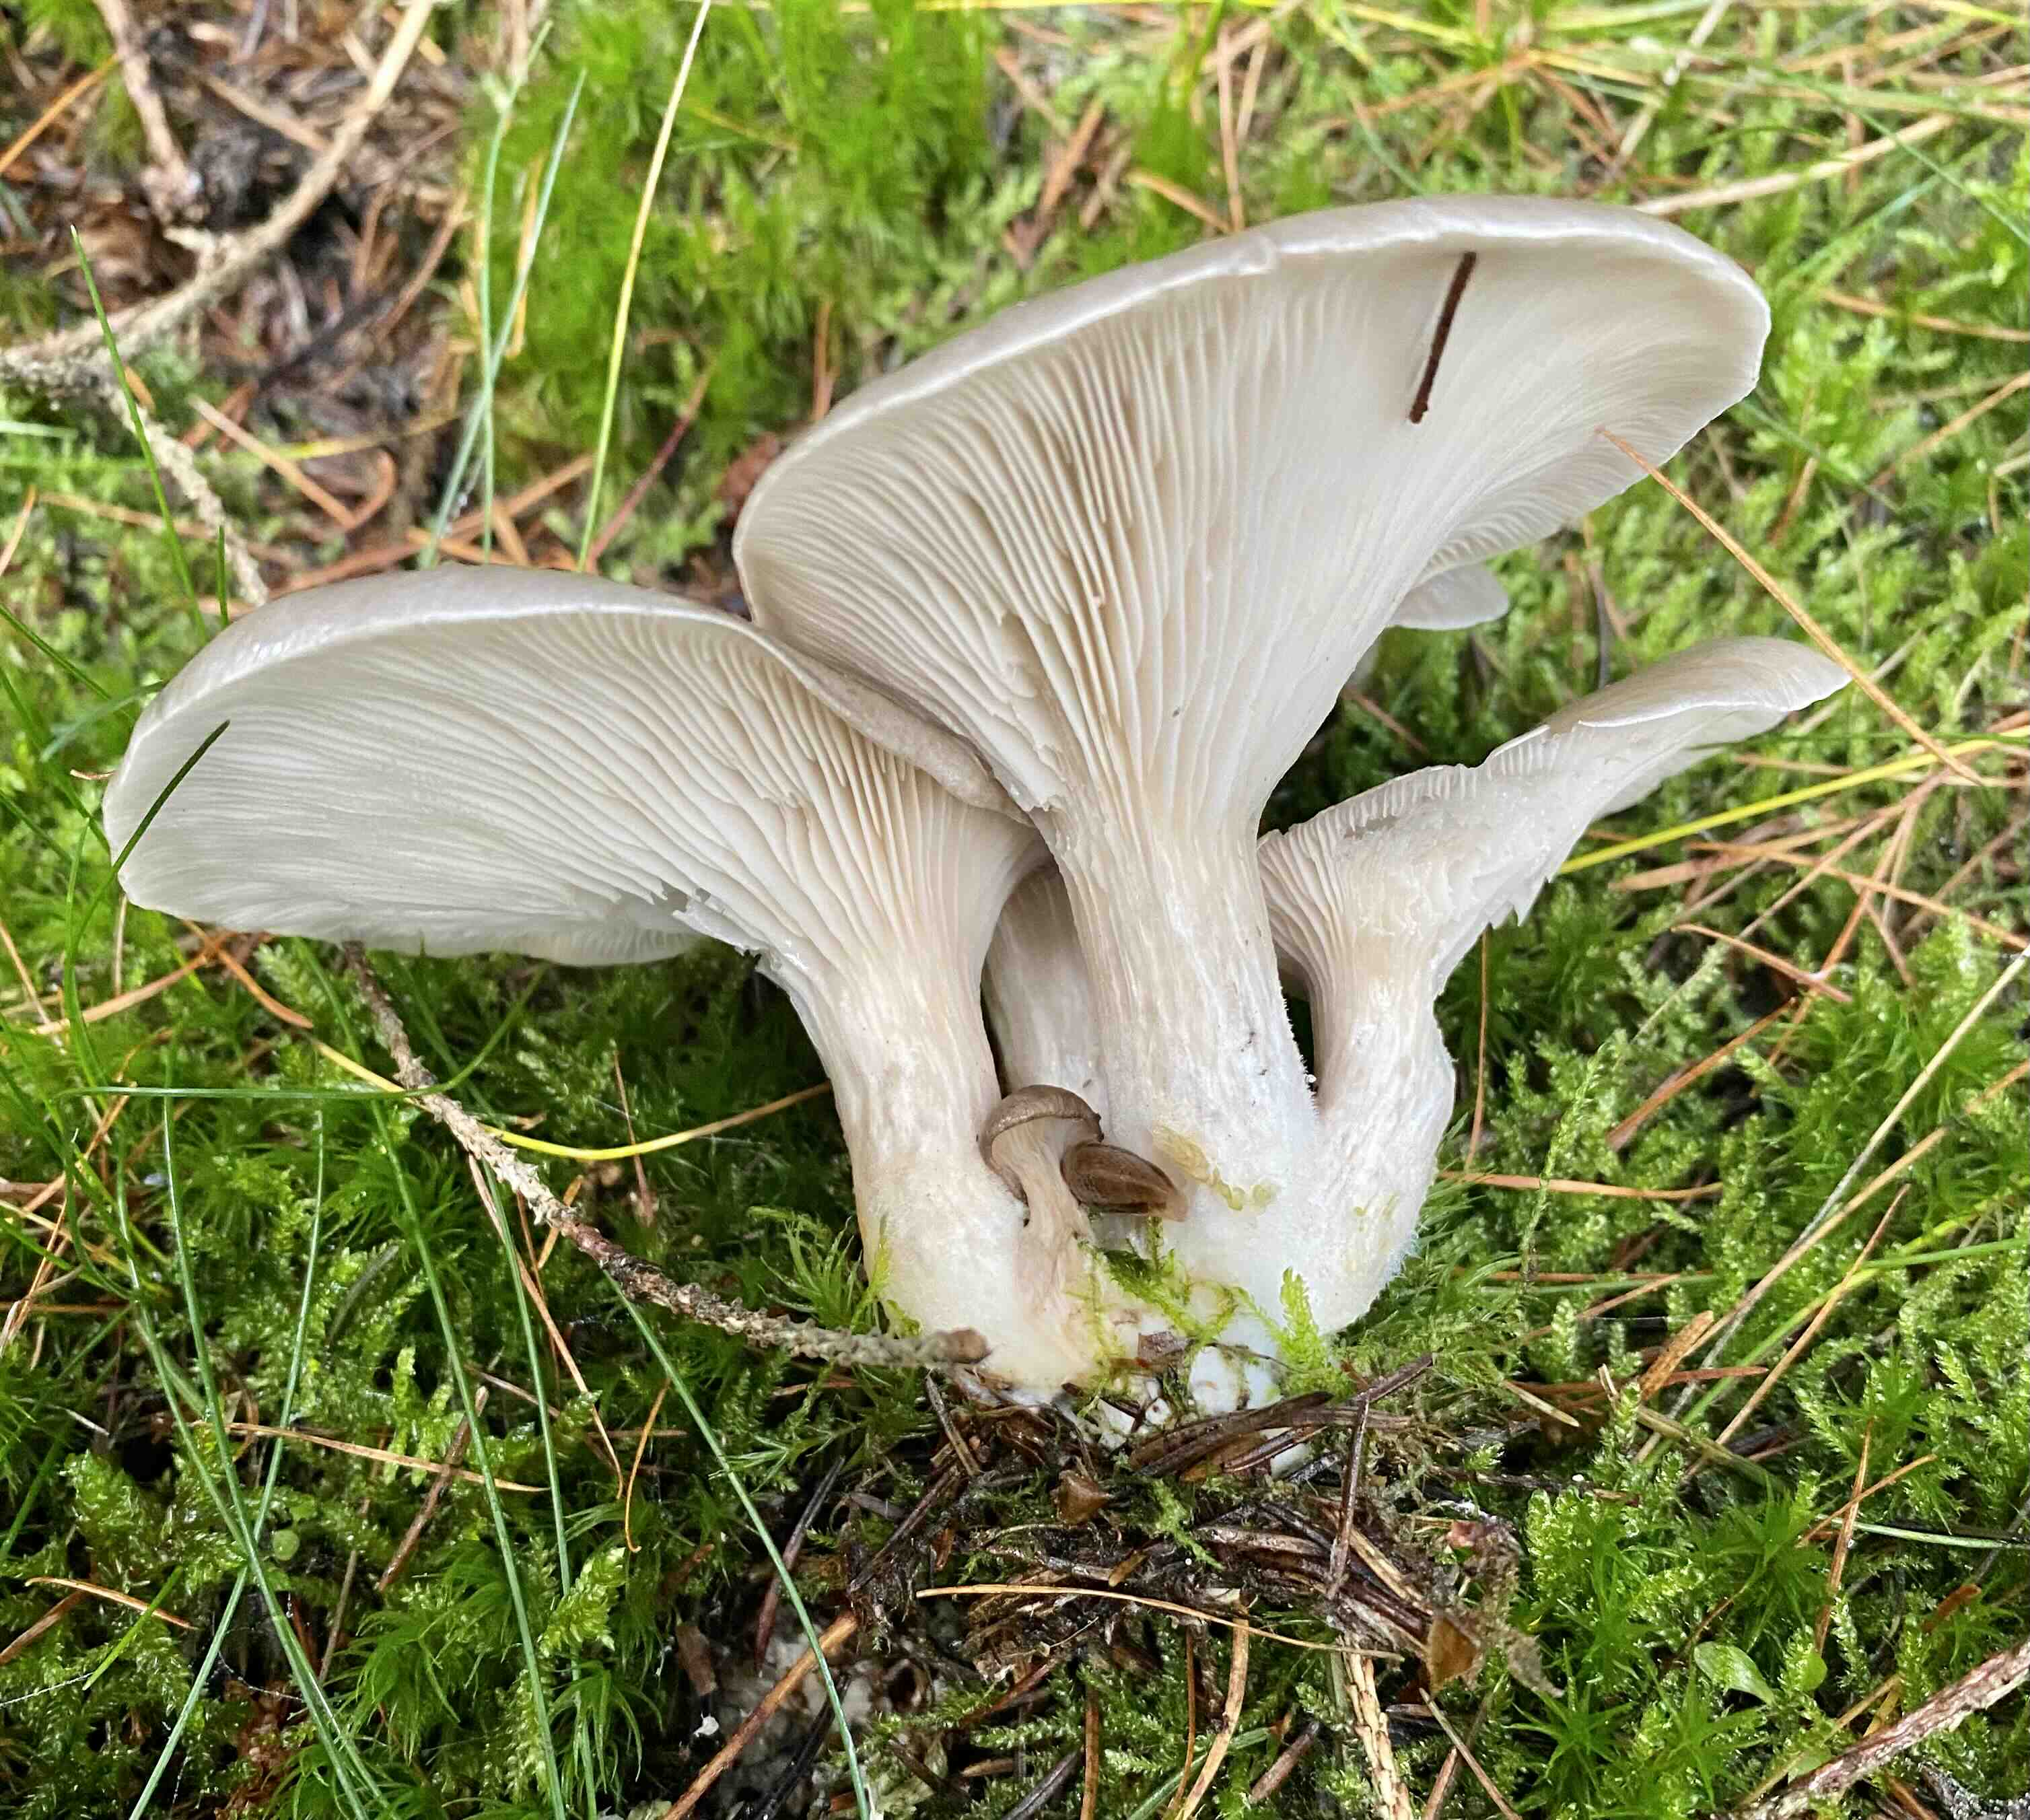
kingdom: Fungi
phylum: Basidiomycota
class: Agaricomycetes
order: Agaricales
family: Pleurotaceae
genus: Pleurotus
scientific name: Pleurotus ostreatus
